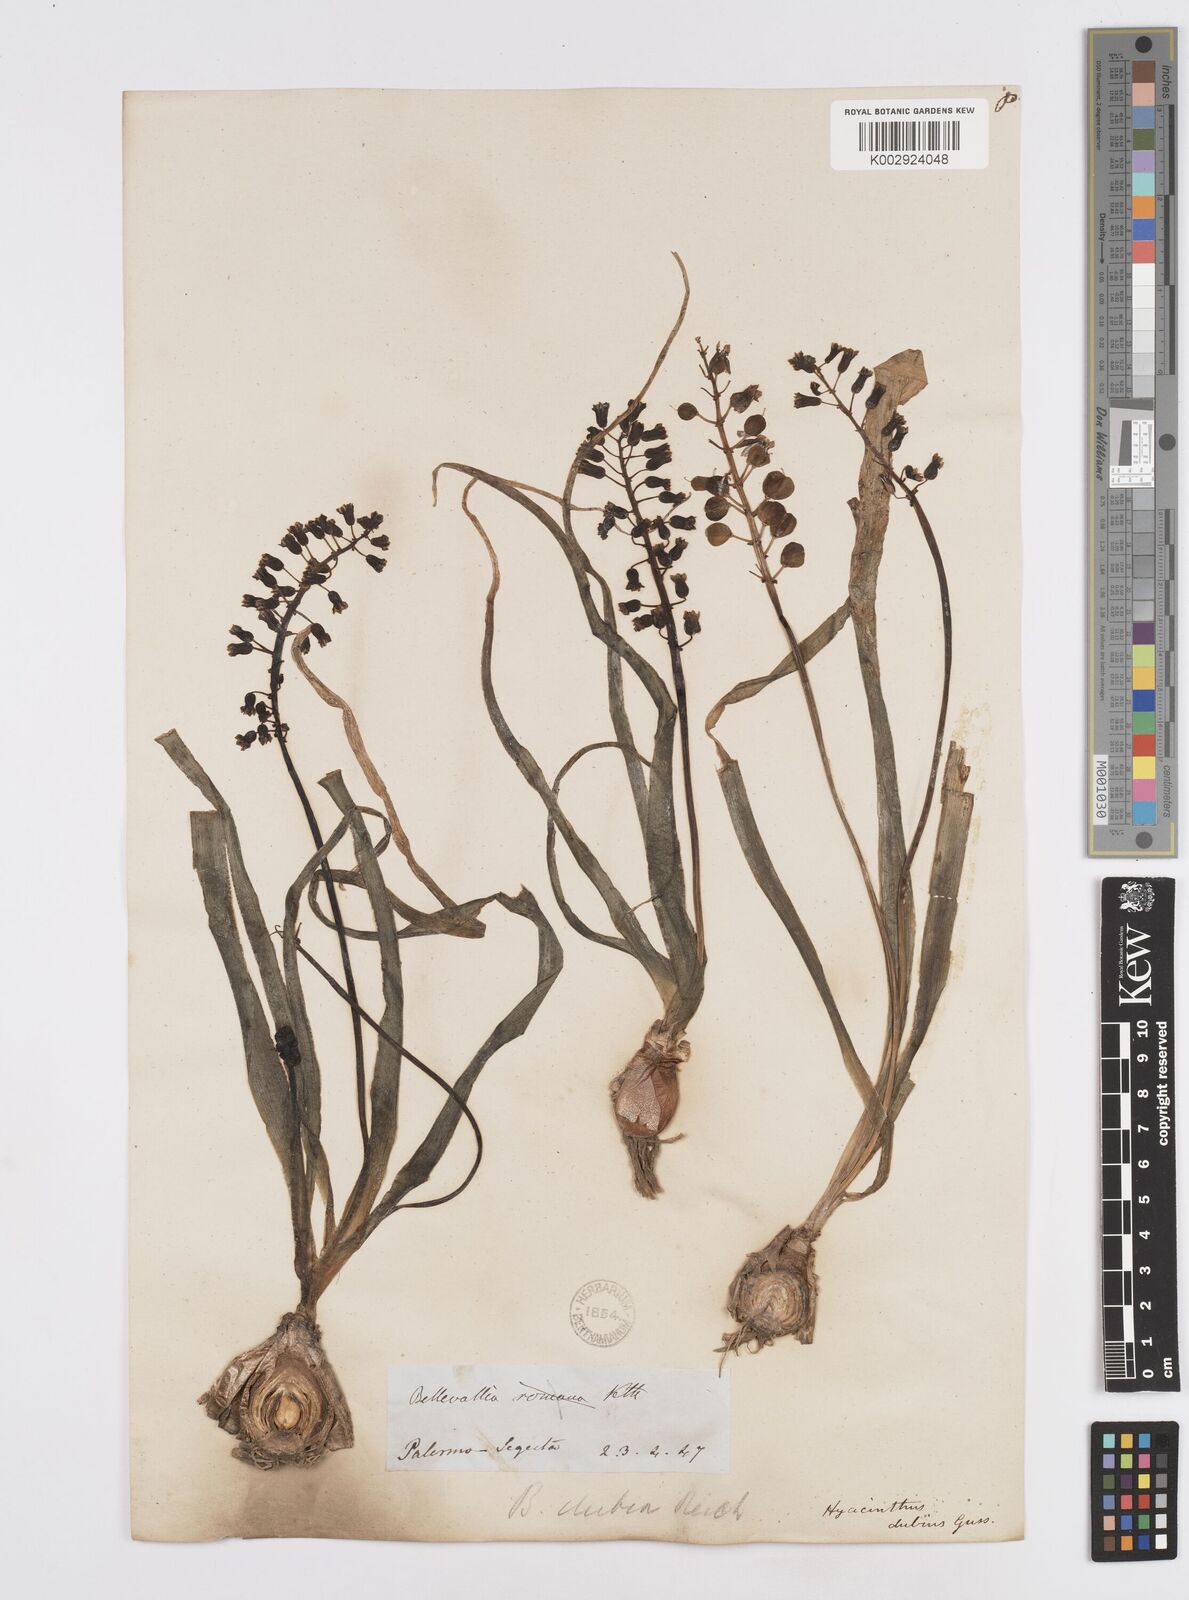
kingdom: Plantae
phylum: Tracheophyta
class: Liliopsida
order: Asparagales
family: Asparagaceae
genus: Bellevalia
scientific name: Bellevalia dubia
